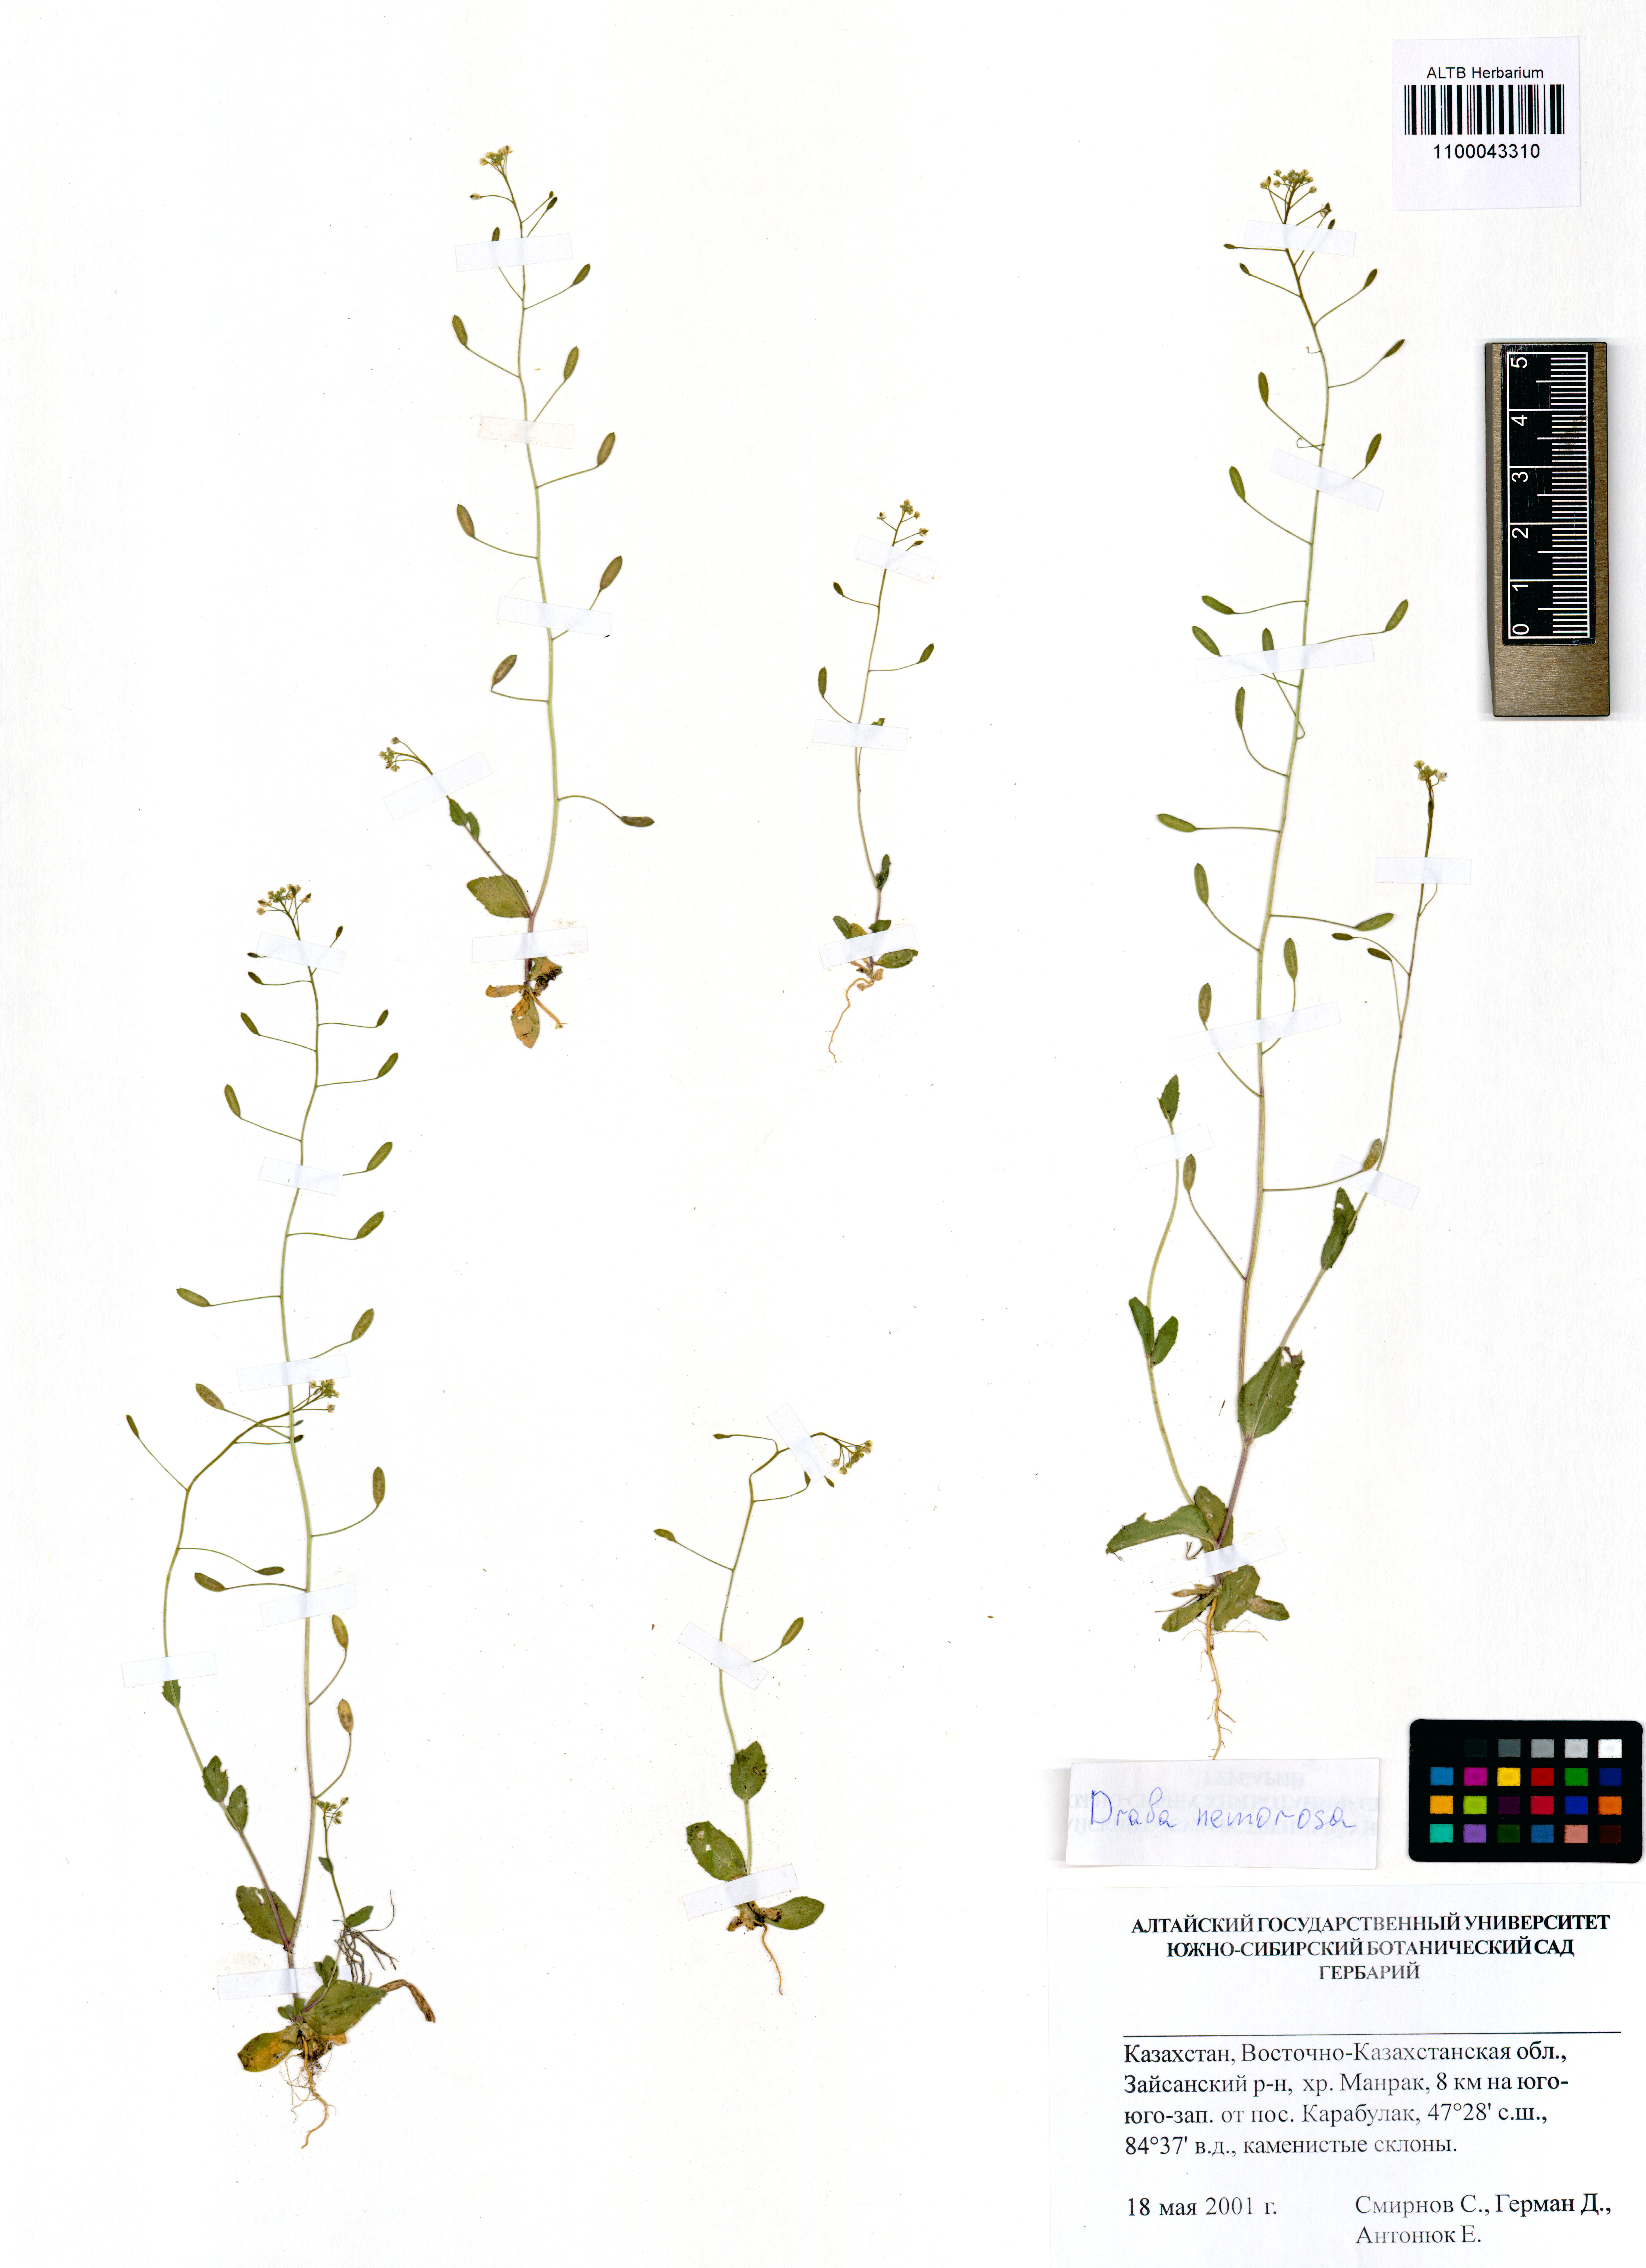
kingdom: Plantae
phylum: Tracheophyta
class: Magnoliopsida
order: Brassicales
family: Brassicaceae
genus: Draba
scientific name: Draba nemorosa
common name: Wood whitlow-grass
